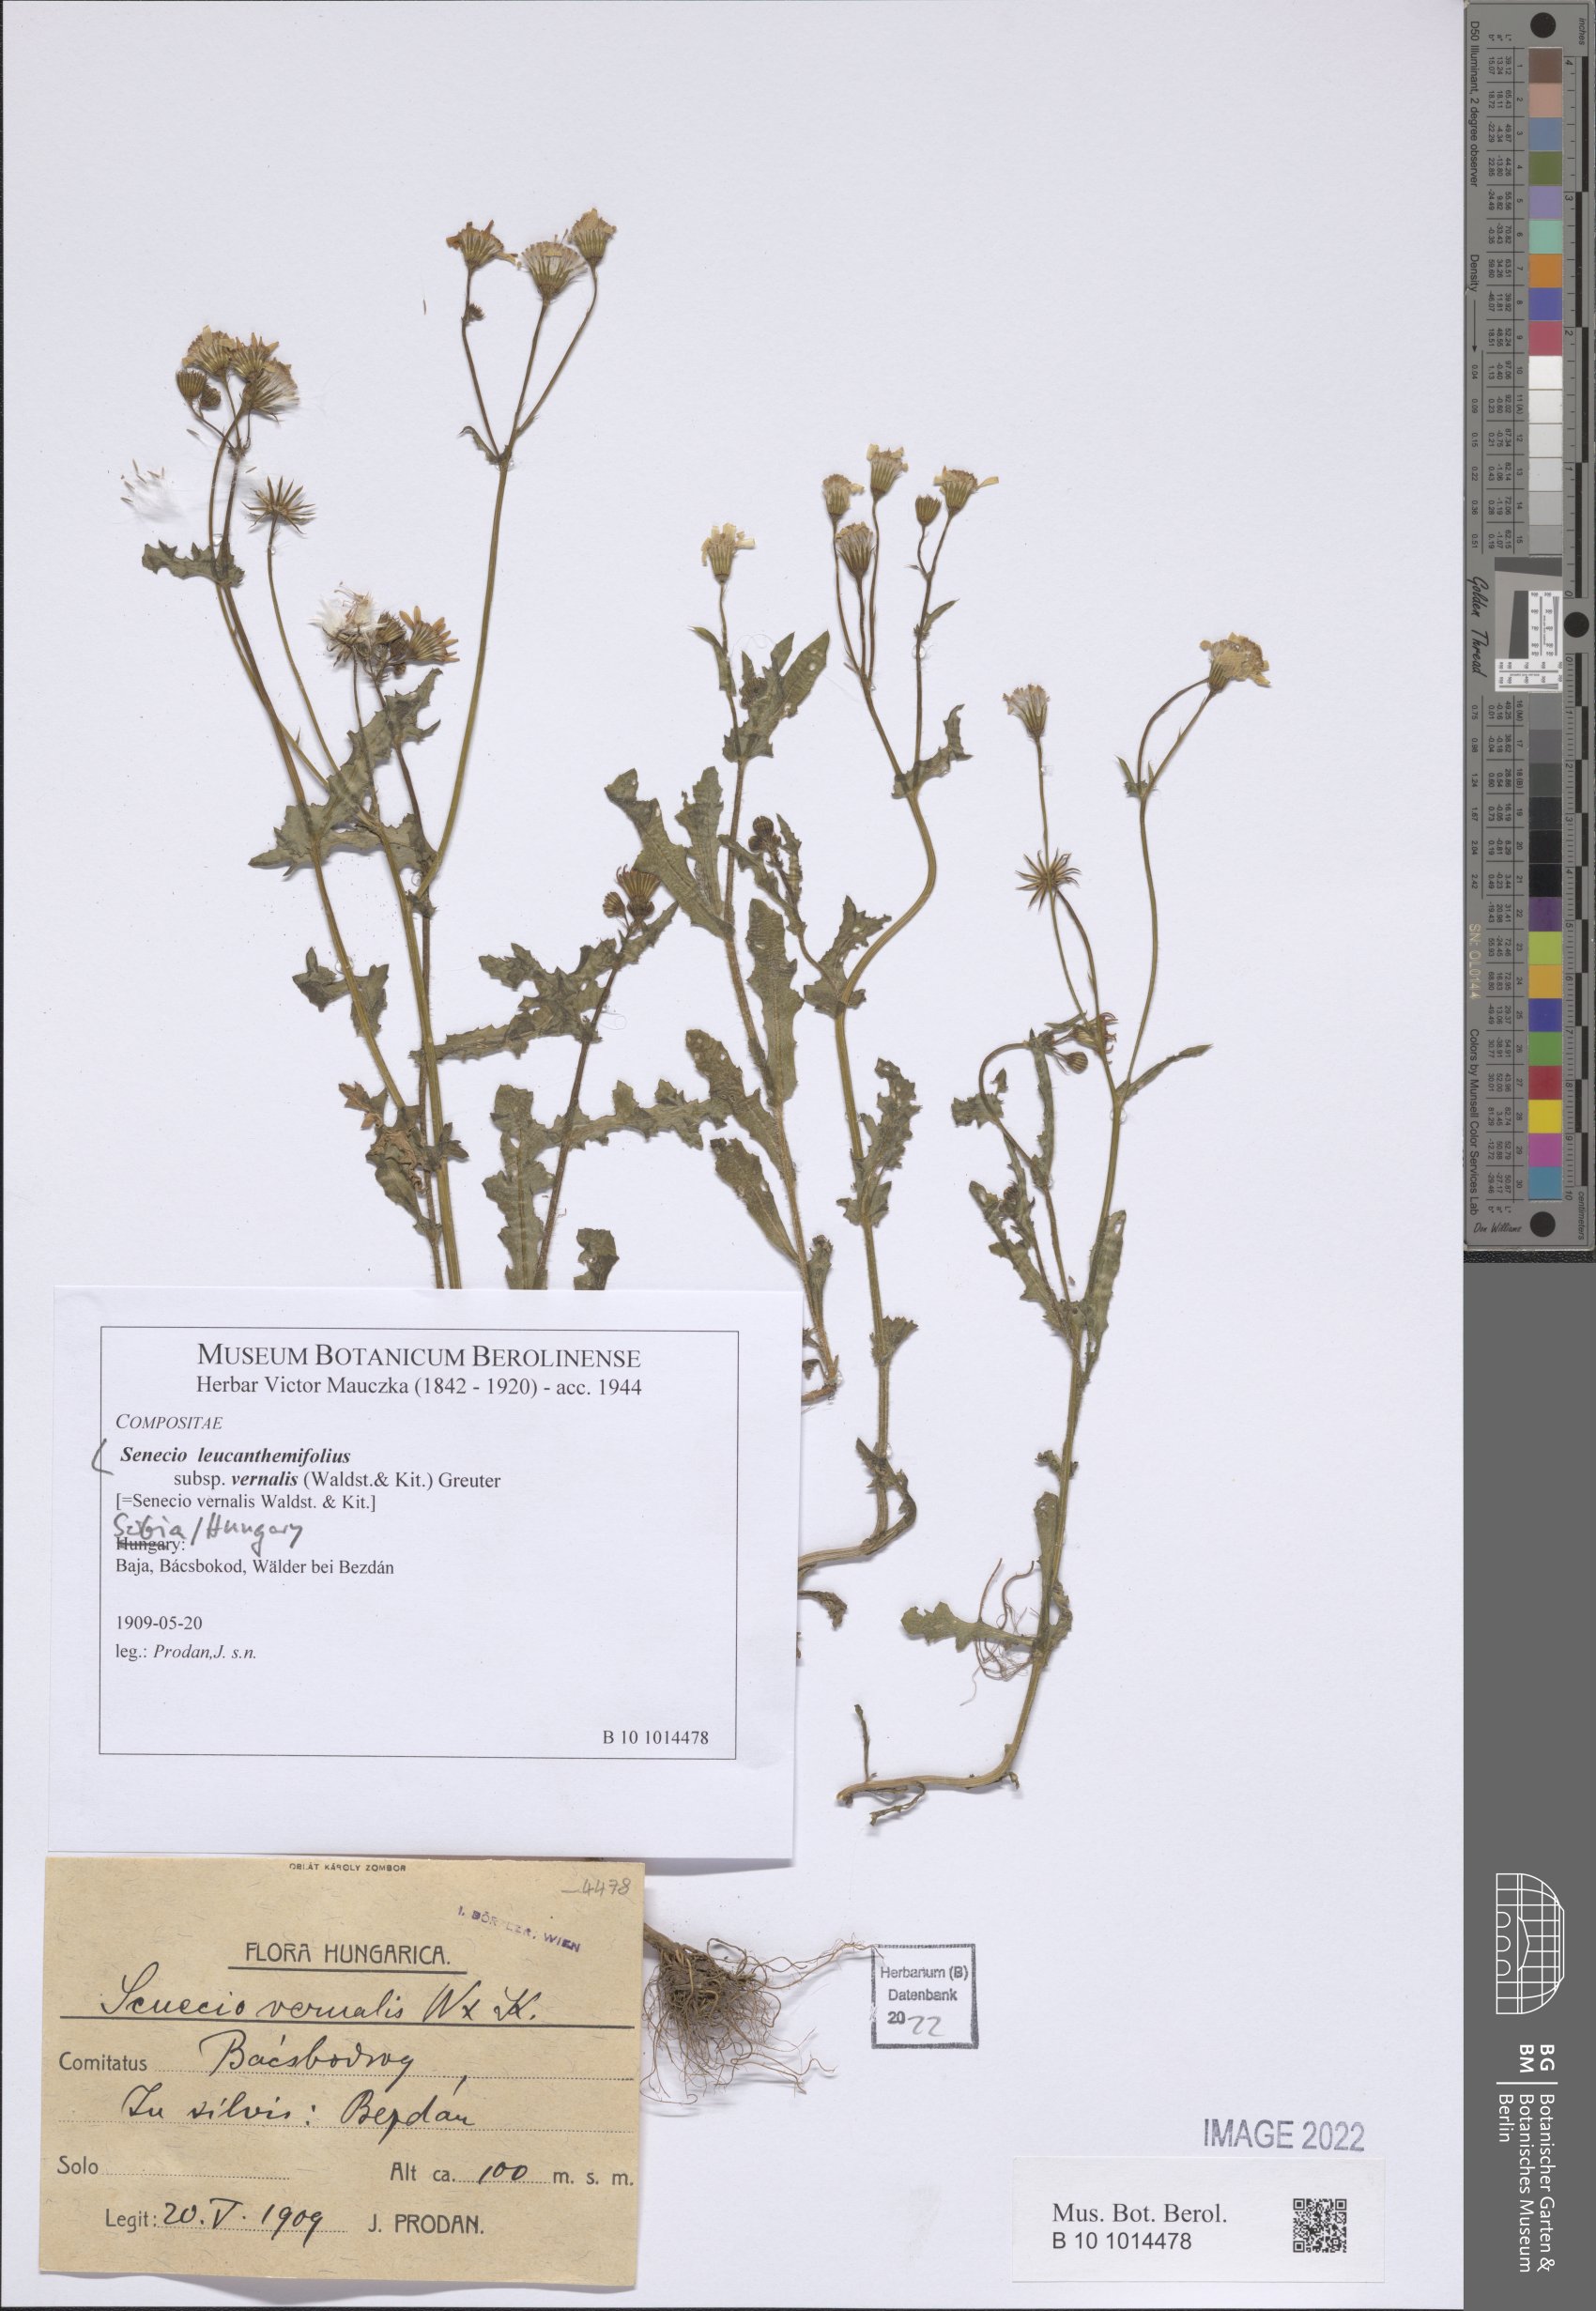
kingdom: Plantae
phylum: Tracheophyta
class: Magnoliopsida
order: Asterales
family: Asteraceae
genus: Senecio
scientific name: Senecio vernalis
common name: Eastern groundsel
